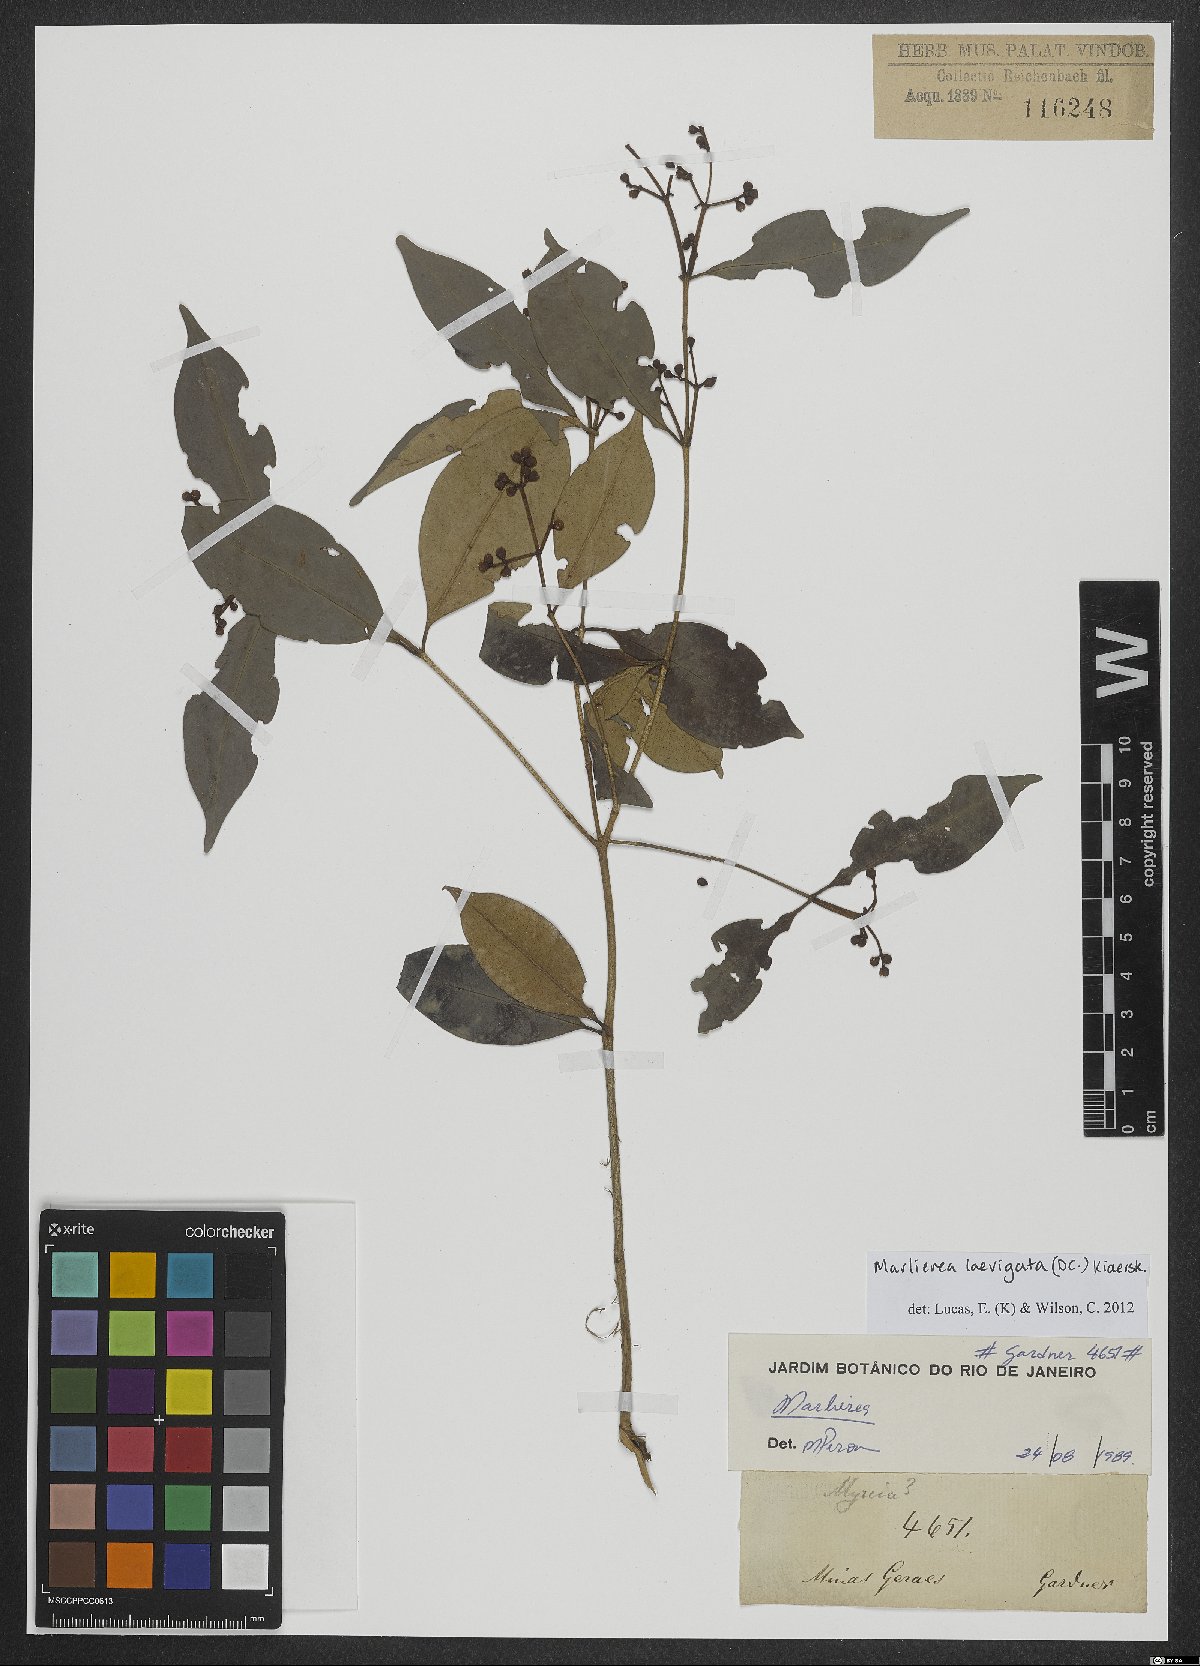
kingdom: Plantae
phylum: Tracheophyta
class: Magnoliopsida
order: Myrtales
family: Myrtaceae
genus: Myrcia
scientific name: Myrcia multipunctata
